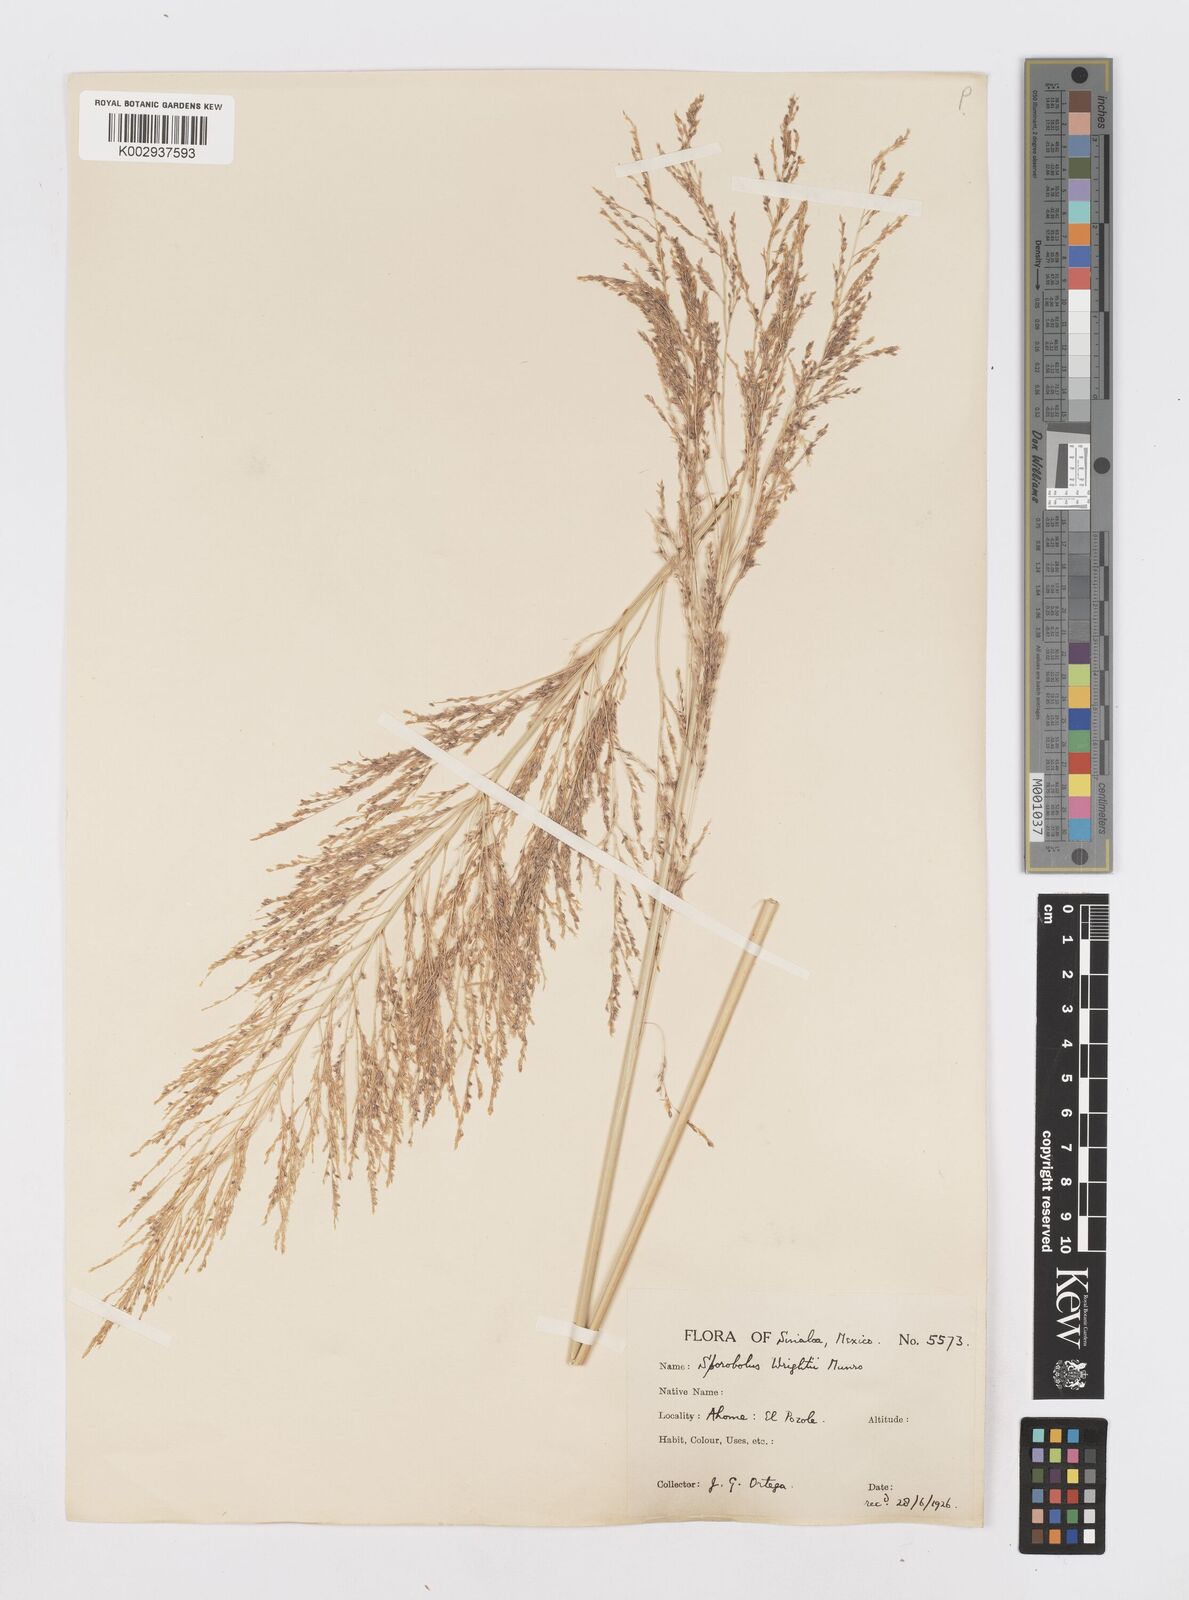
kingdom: Plantae
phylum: Tracheophyta
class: Liliopsida
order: Poales
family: Poaceae
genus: Sporobolus
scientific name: Sporobolus wrightii
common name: Big alkali sacaton
